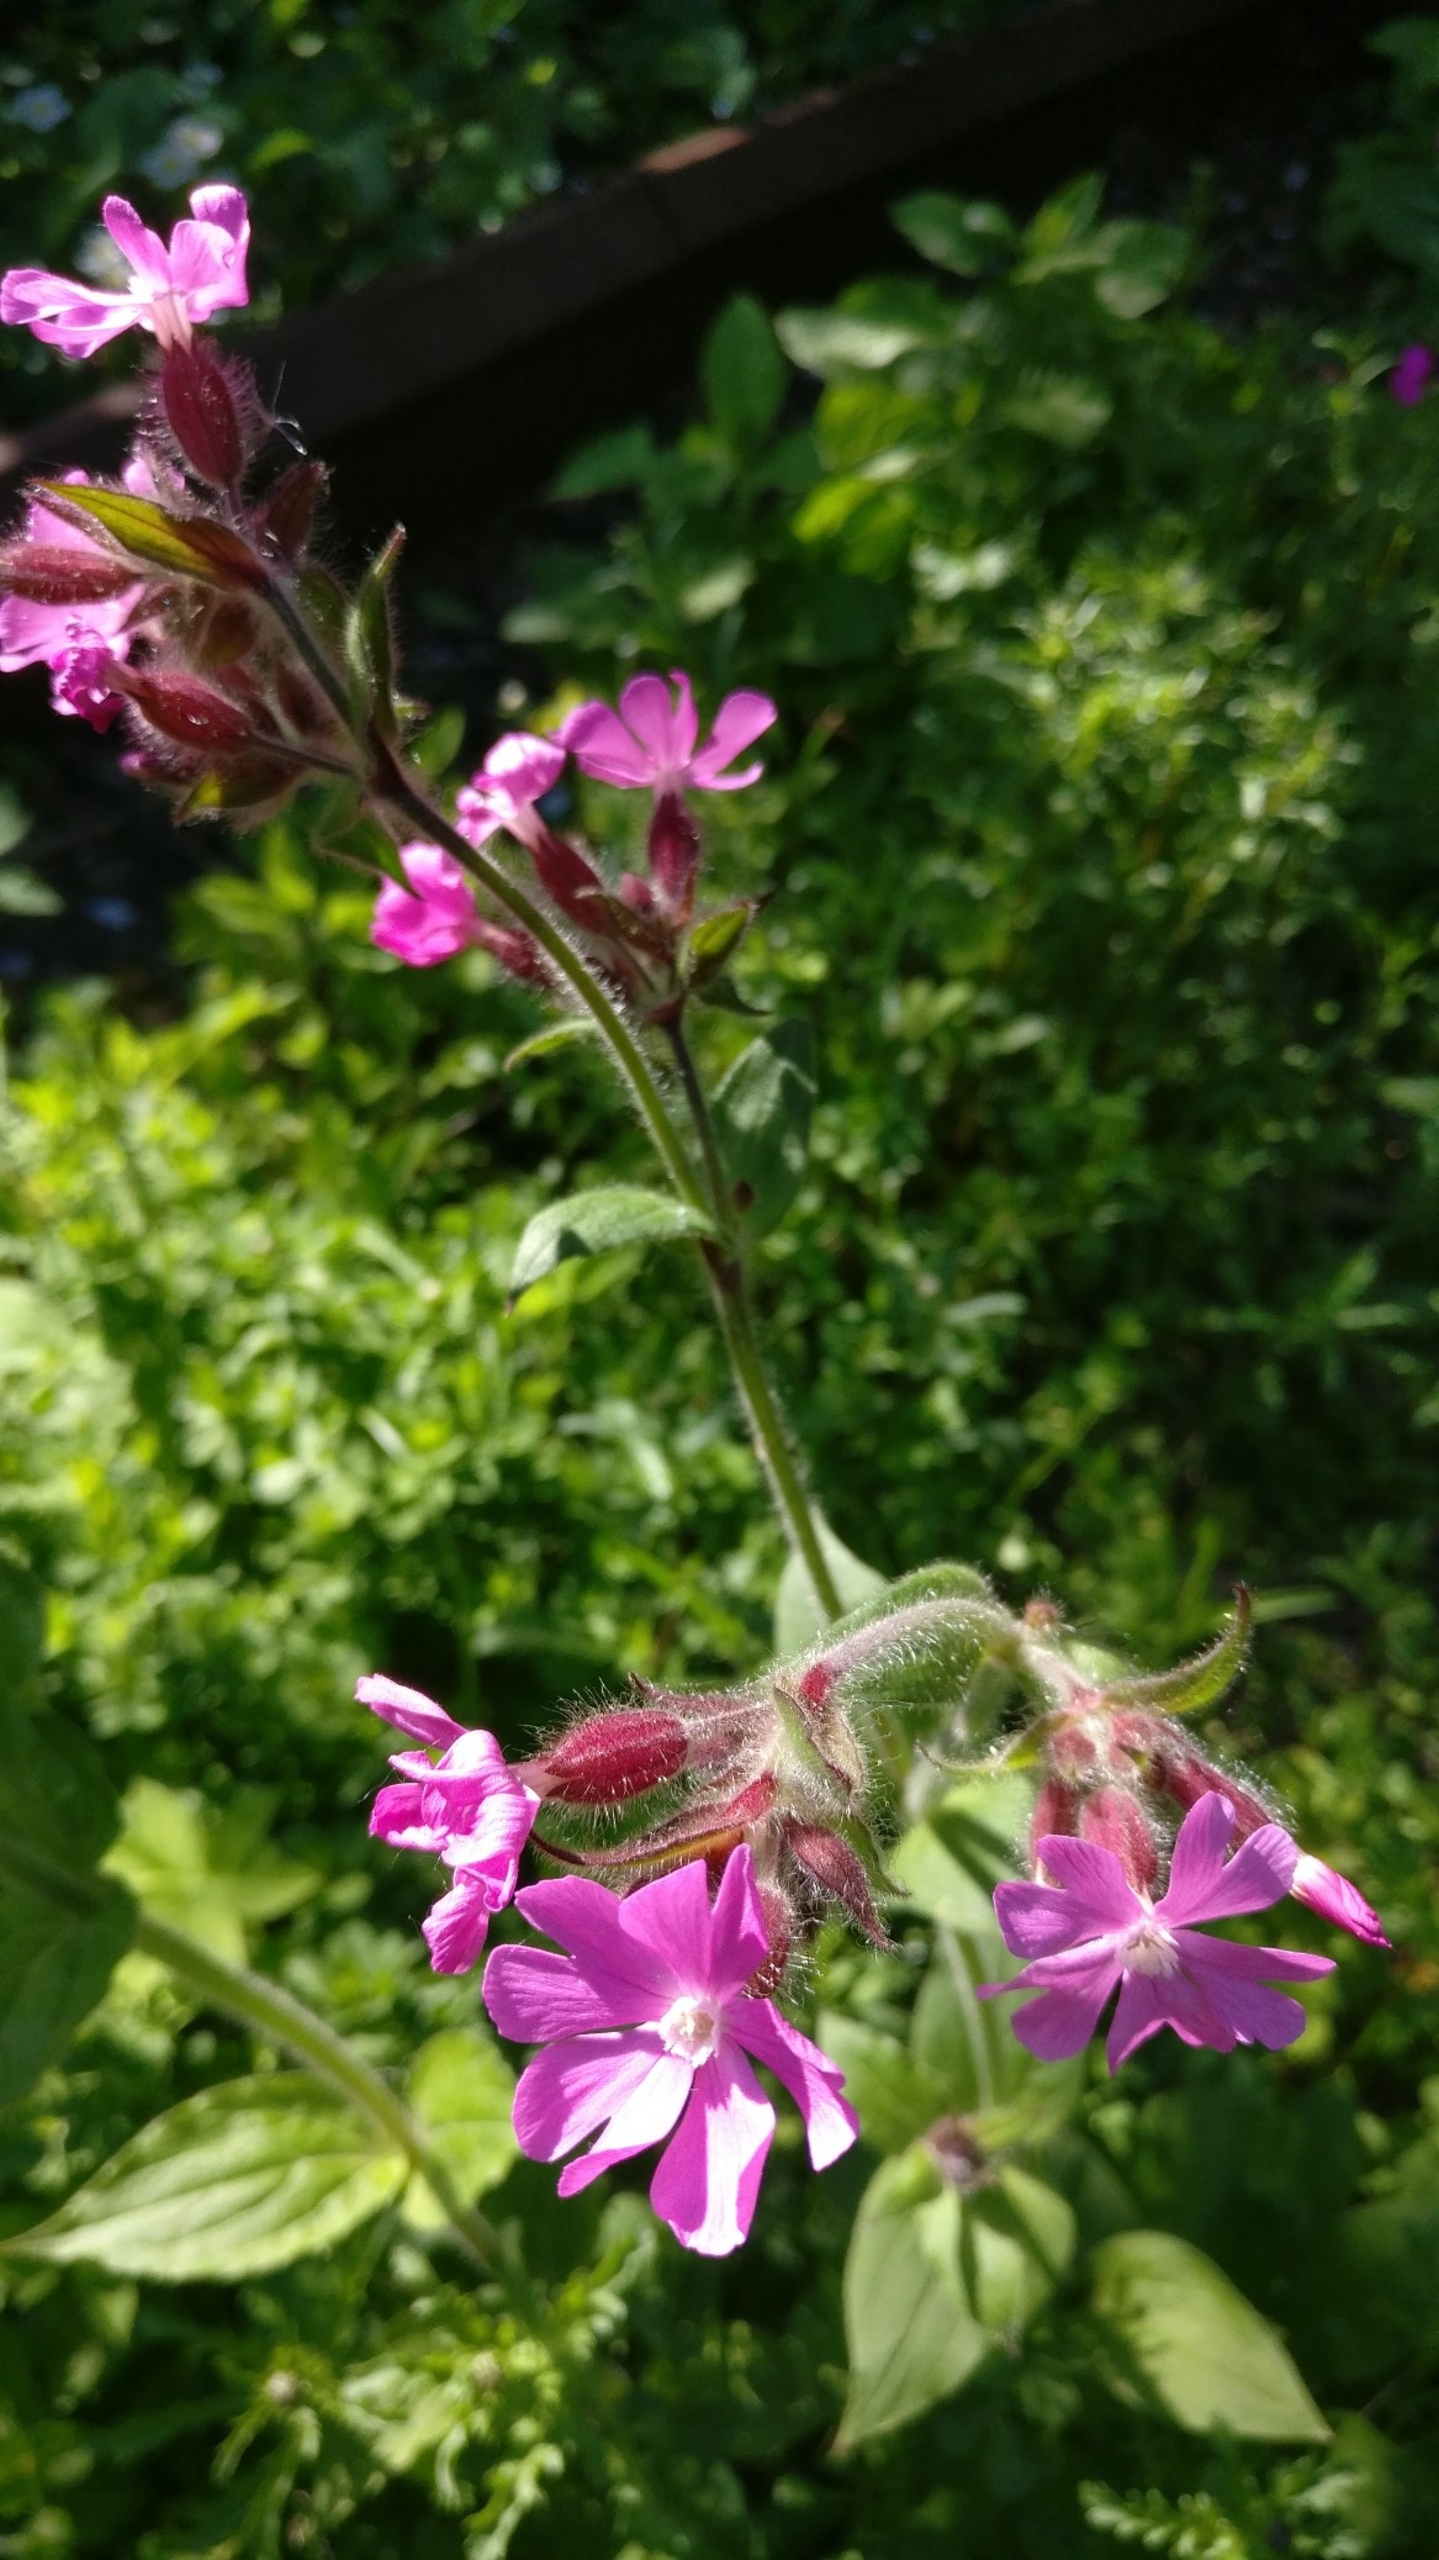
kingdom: Plantae
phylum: Tracheophyta
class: Magnoliopsida
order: Caryophyllales
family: Caryophyllaceae
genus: Silene
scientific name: Silene dioica
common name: Dagpragtstjerne
